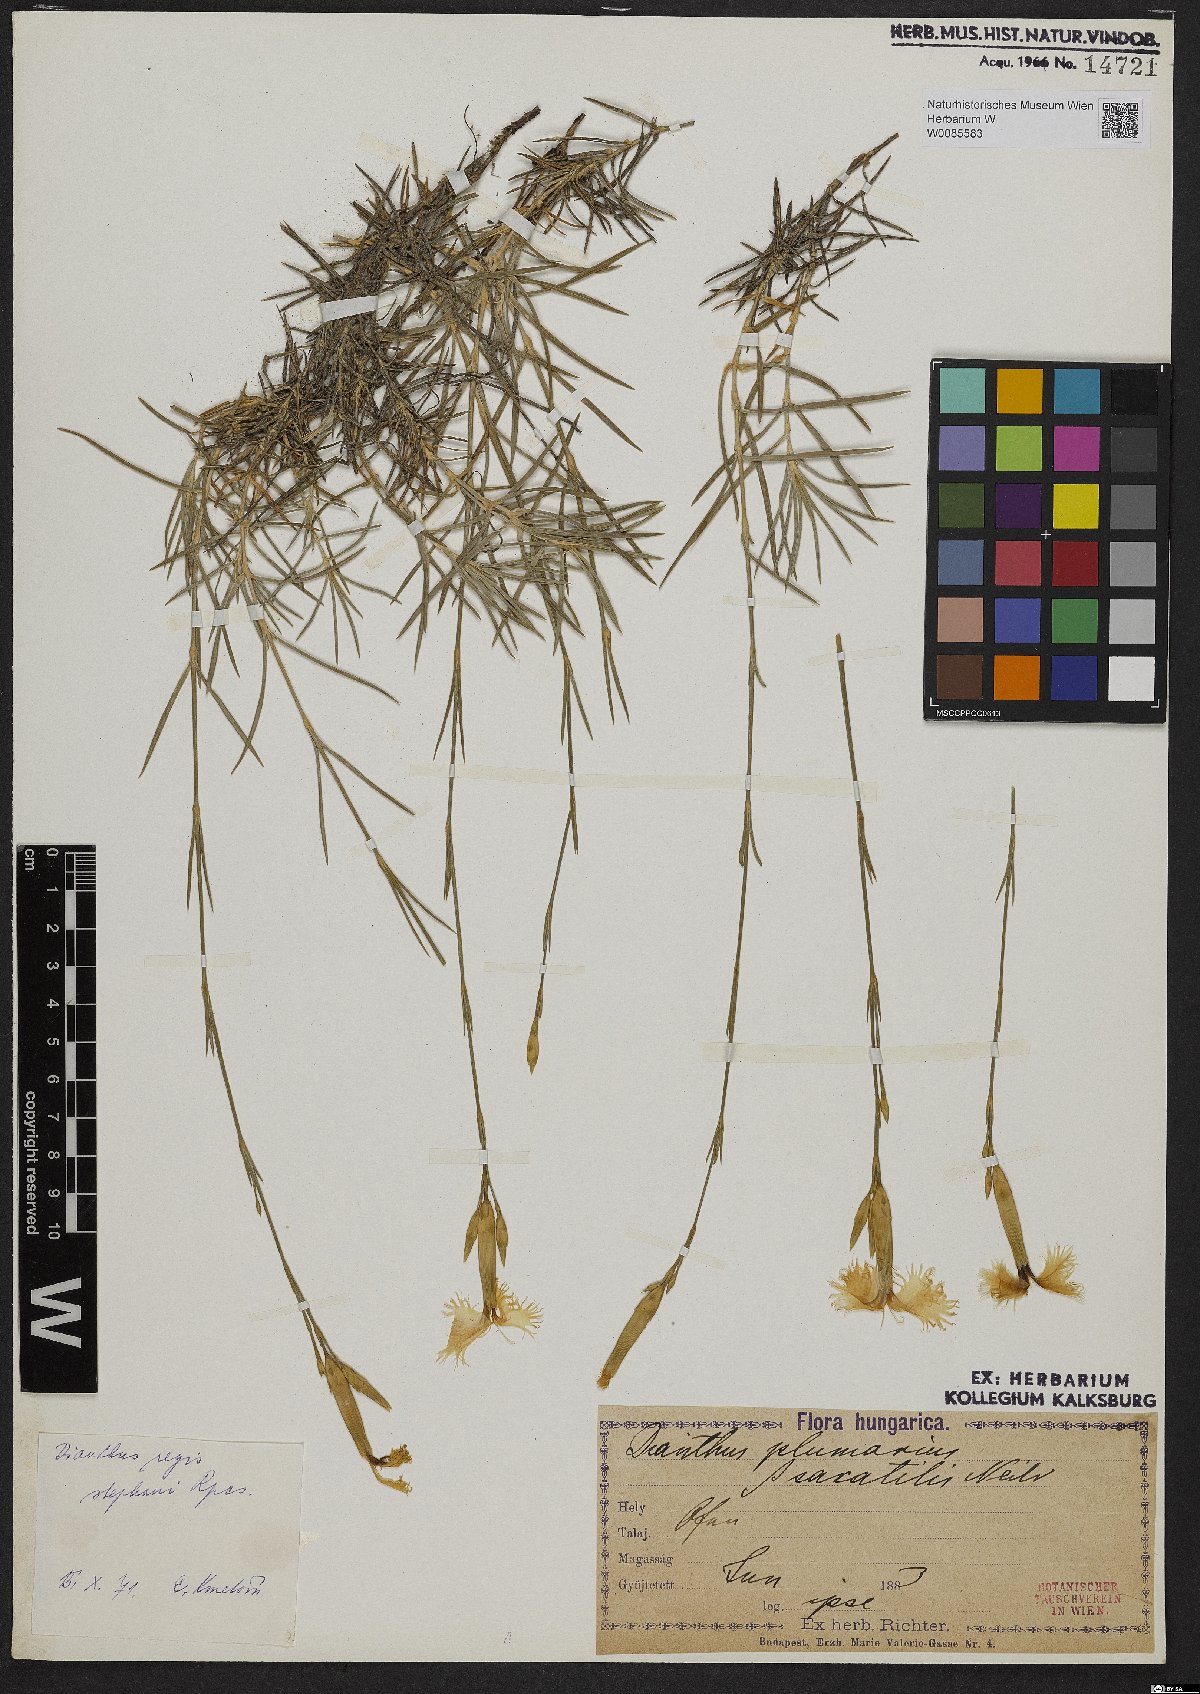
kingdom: Plantae
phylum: Tracheophyta
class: Magnoliopsida
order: Caryophyllales
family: Caryophyllaceae
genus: Dianthus
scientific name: Dianthus plumarius
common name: Pink
